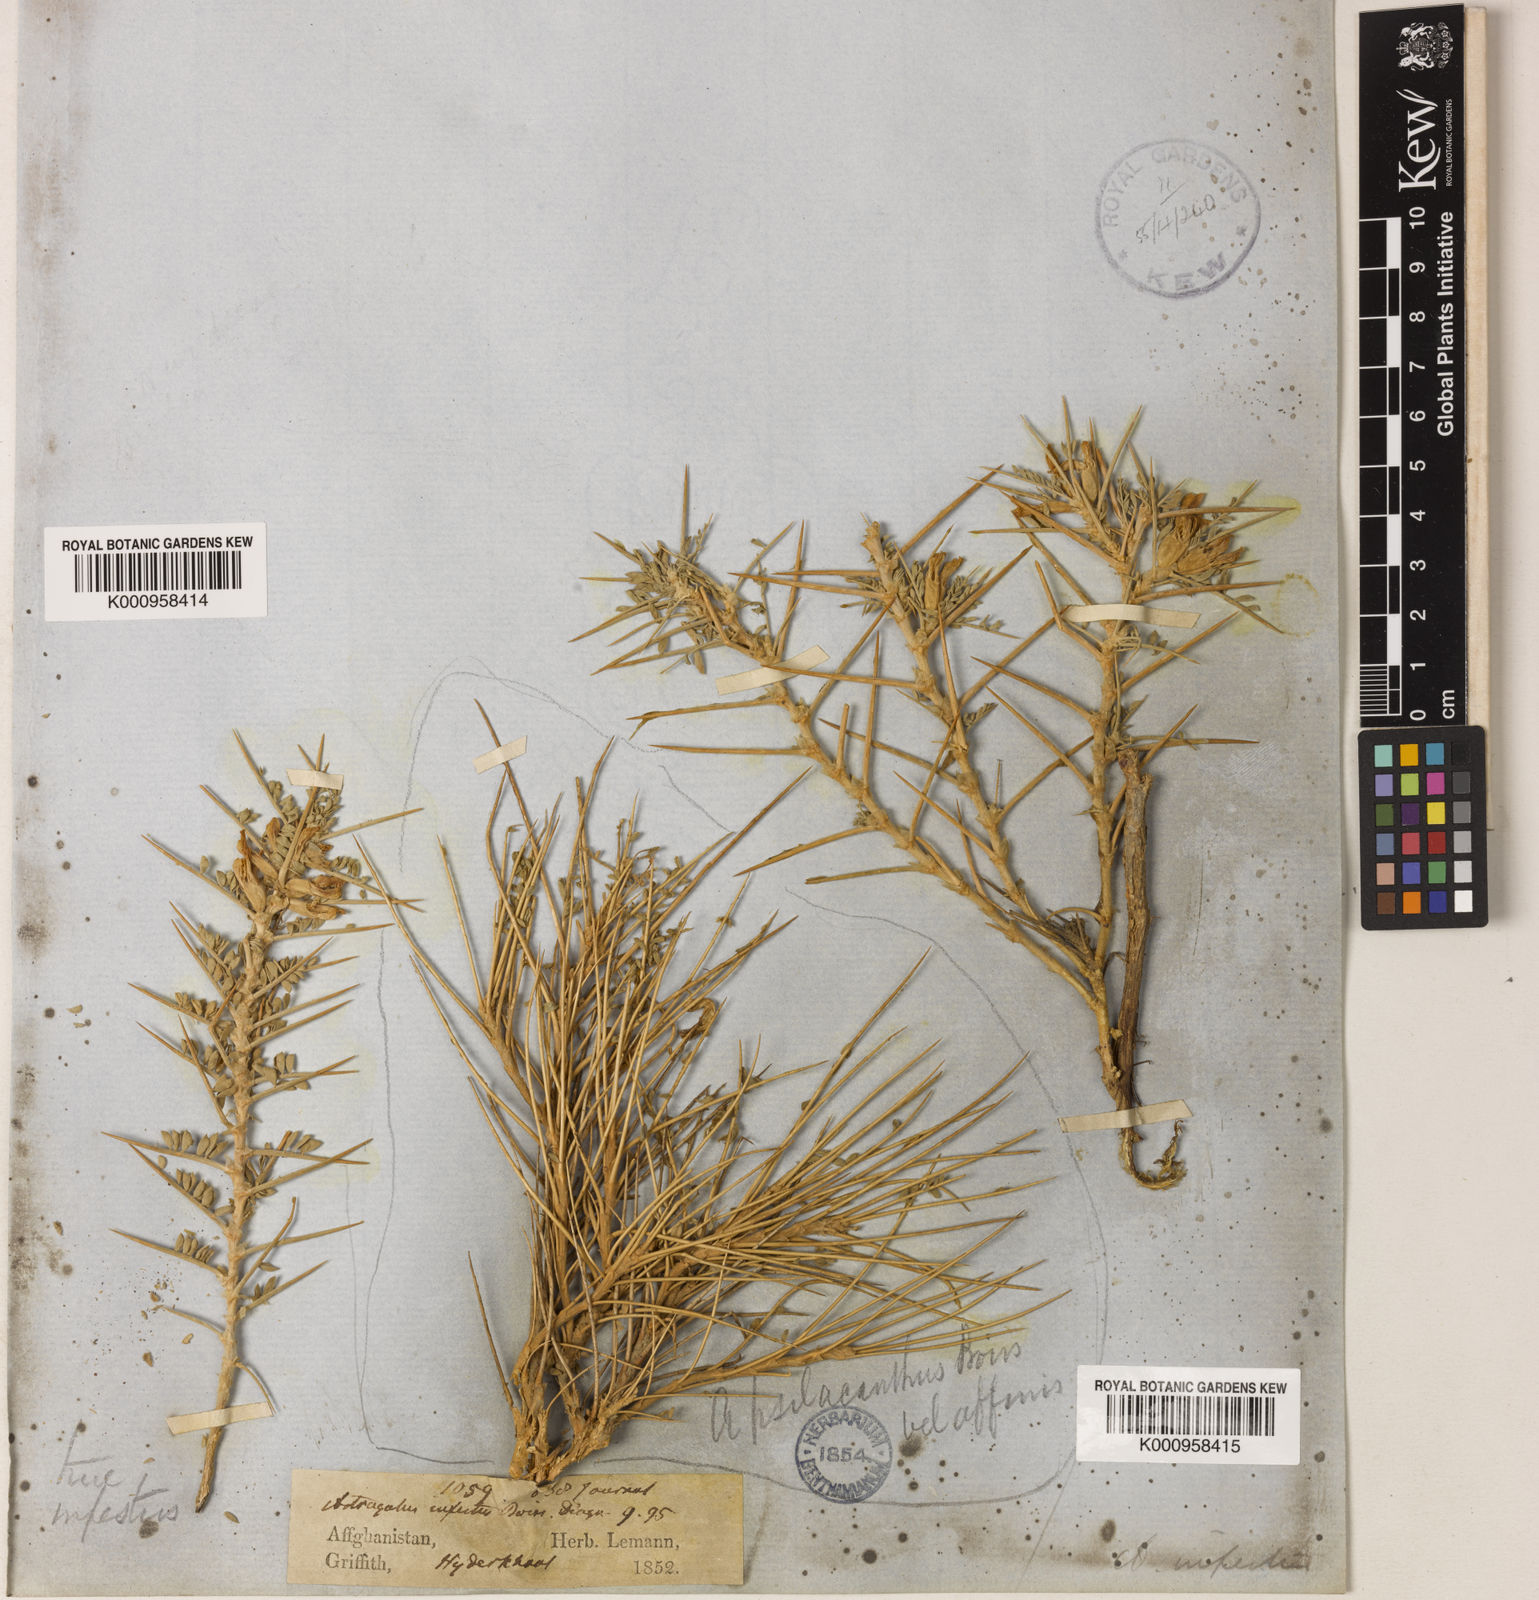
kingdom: Plantae
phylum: Tracheophyta
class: Magnoliopsida
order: Fabales
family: Fabaceae
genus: Astragalus
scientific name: Astragalus infestus
